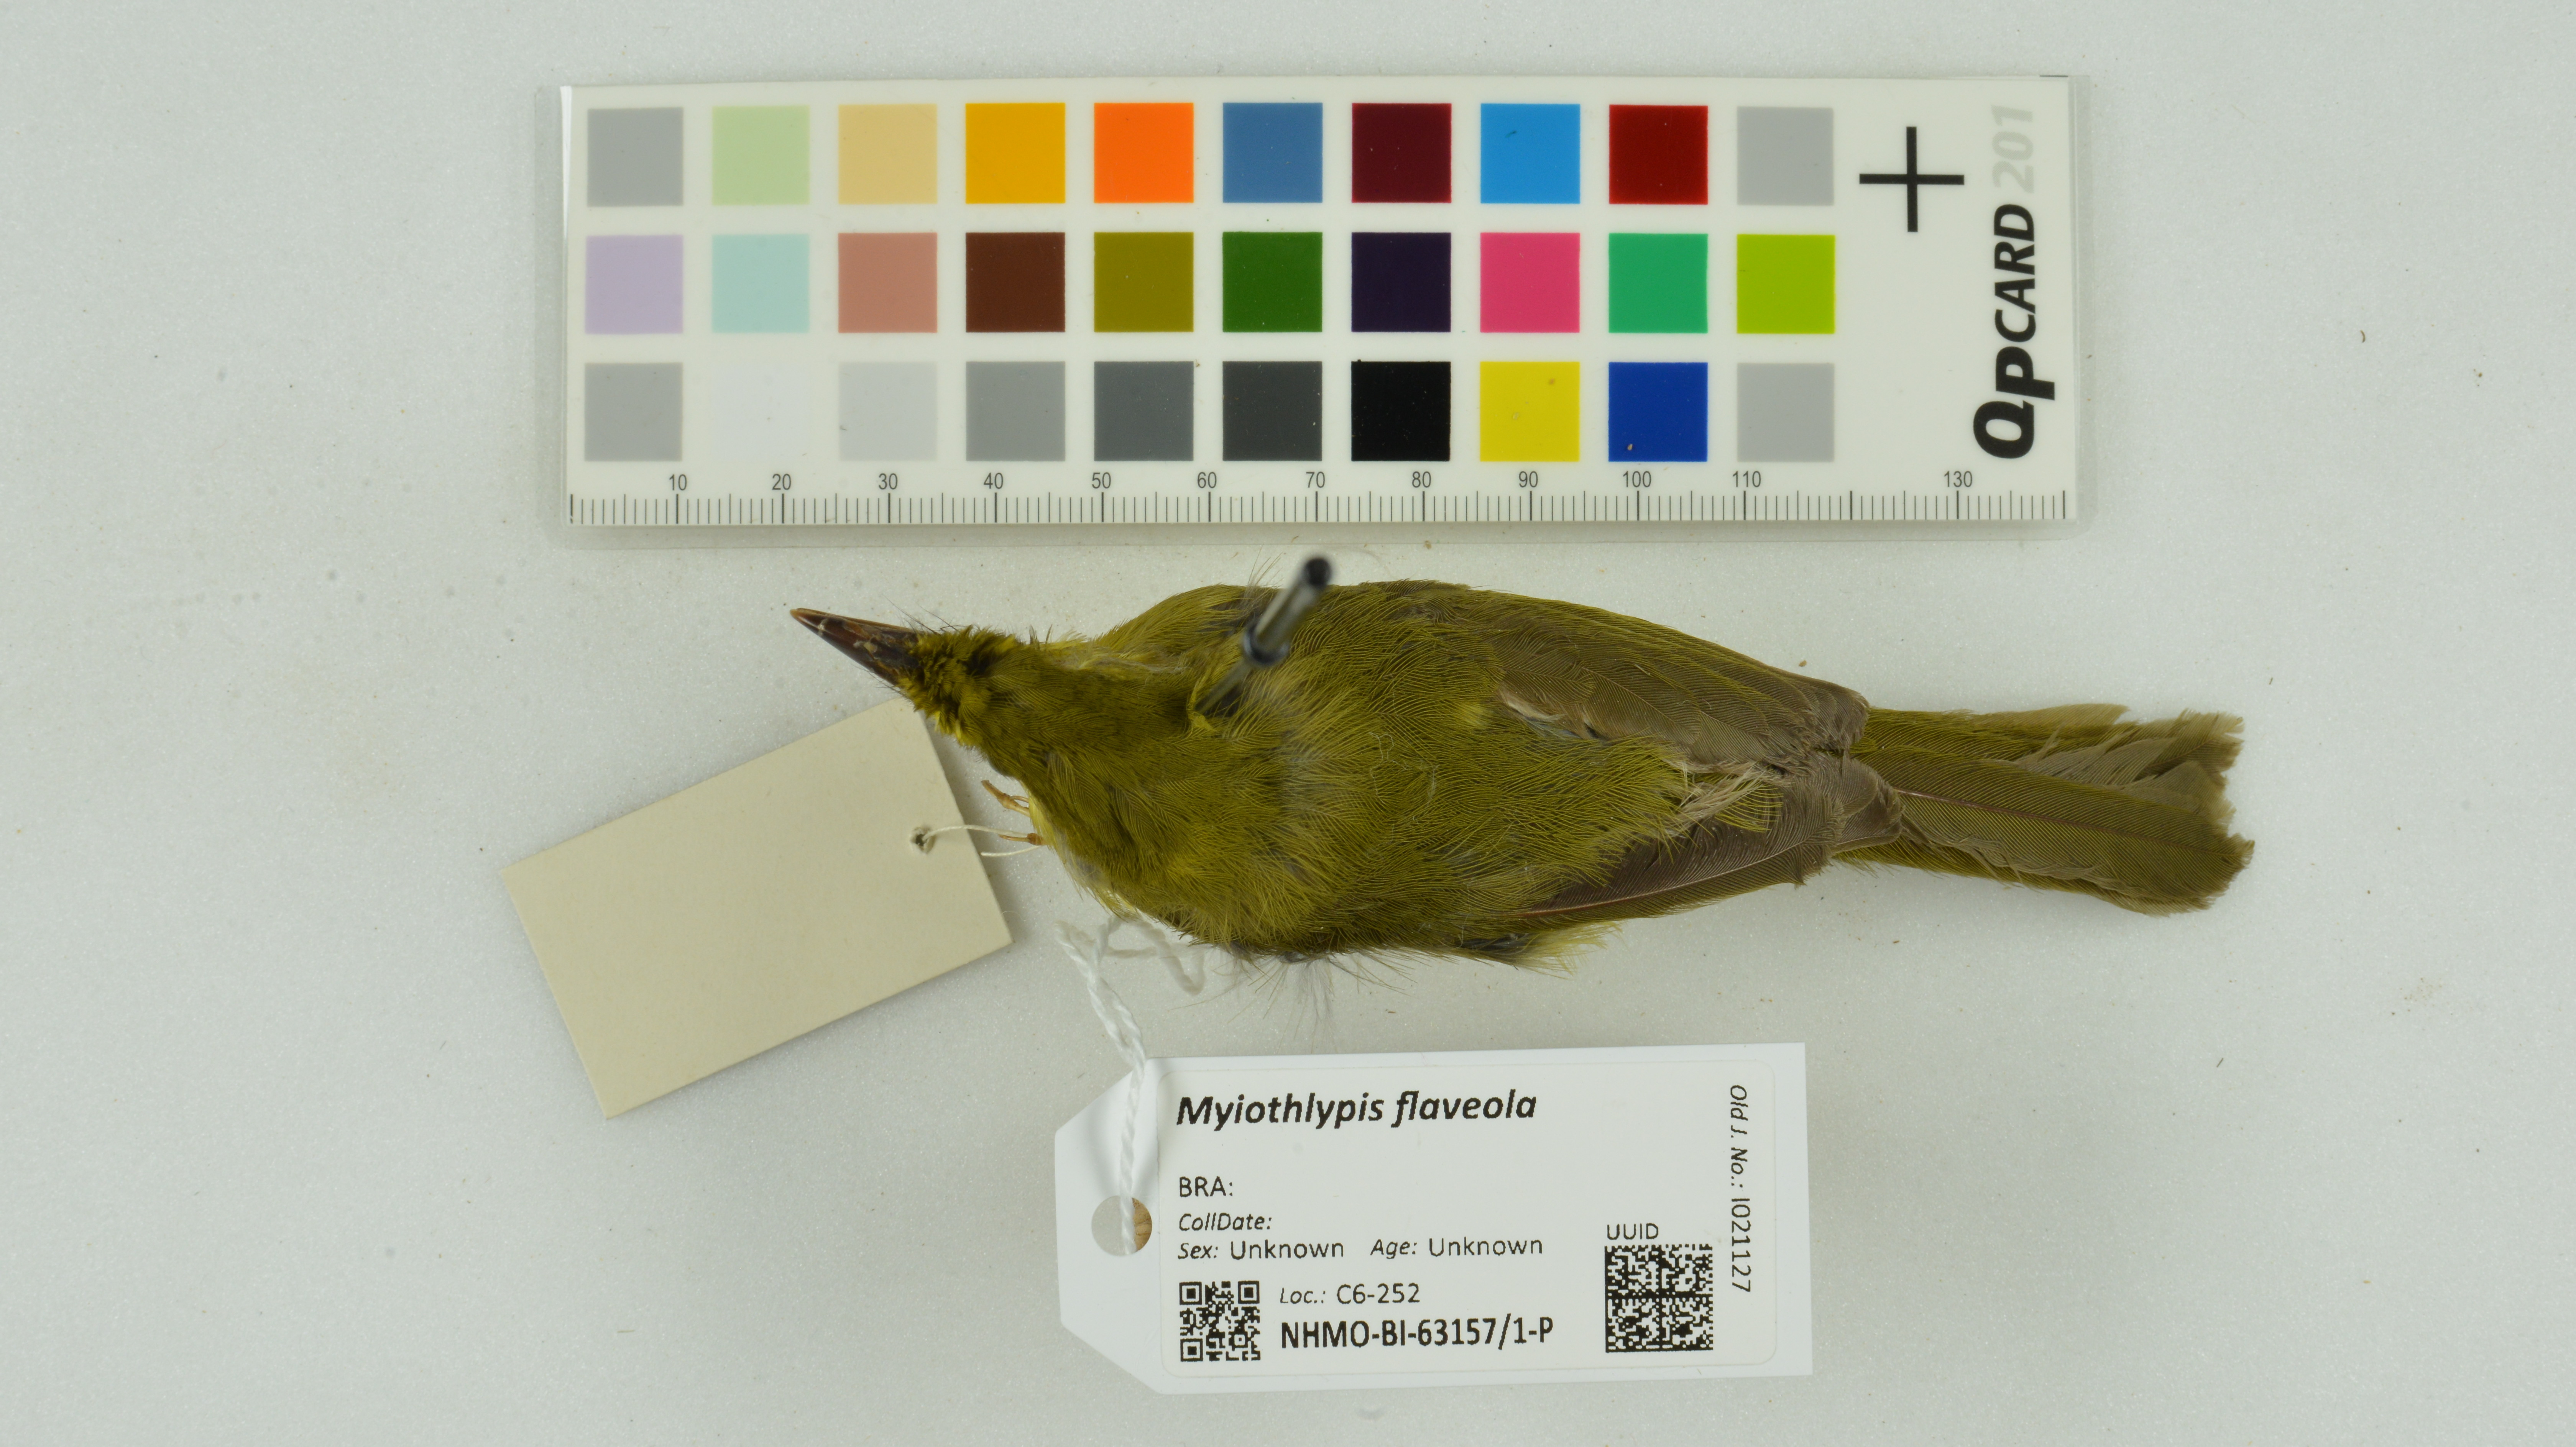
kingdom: Animalia
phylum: Chordata
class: Aves
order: Passeriformes
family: Parulidae
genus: Myiothlypis
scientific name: Myiothlypis flaveola
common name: Flavescent warbler
